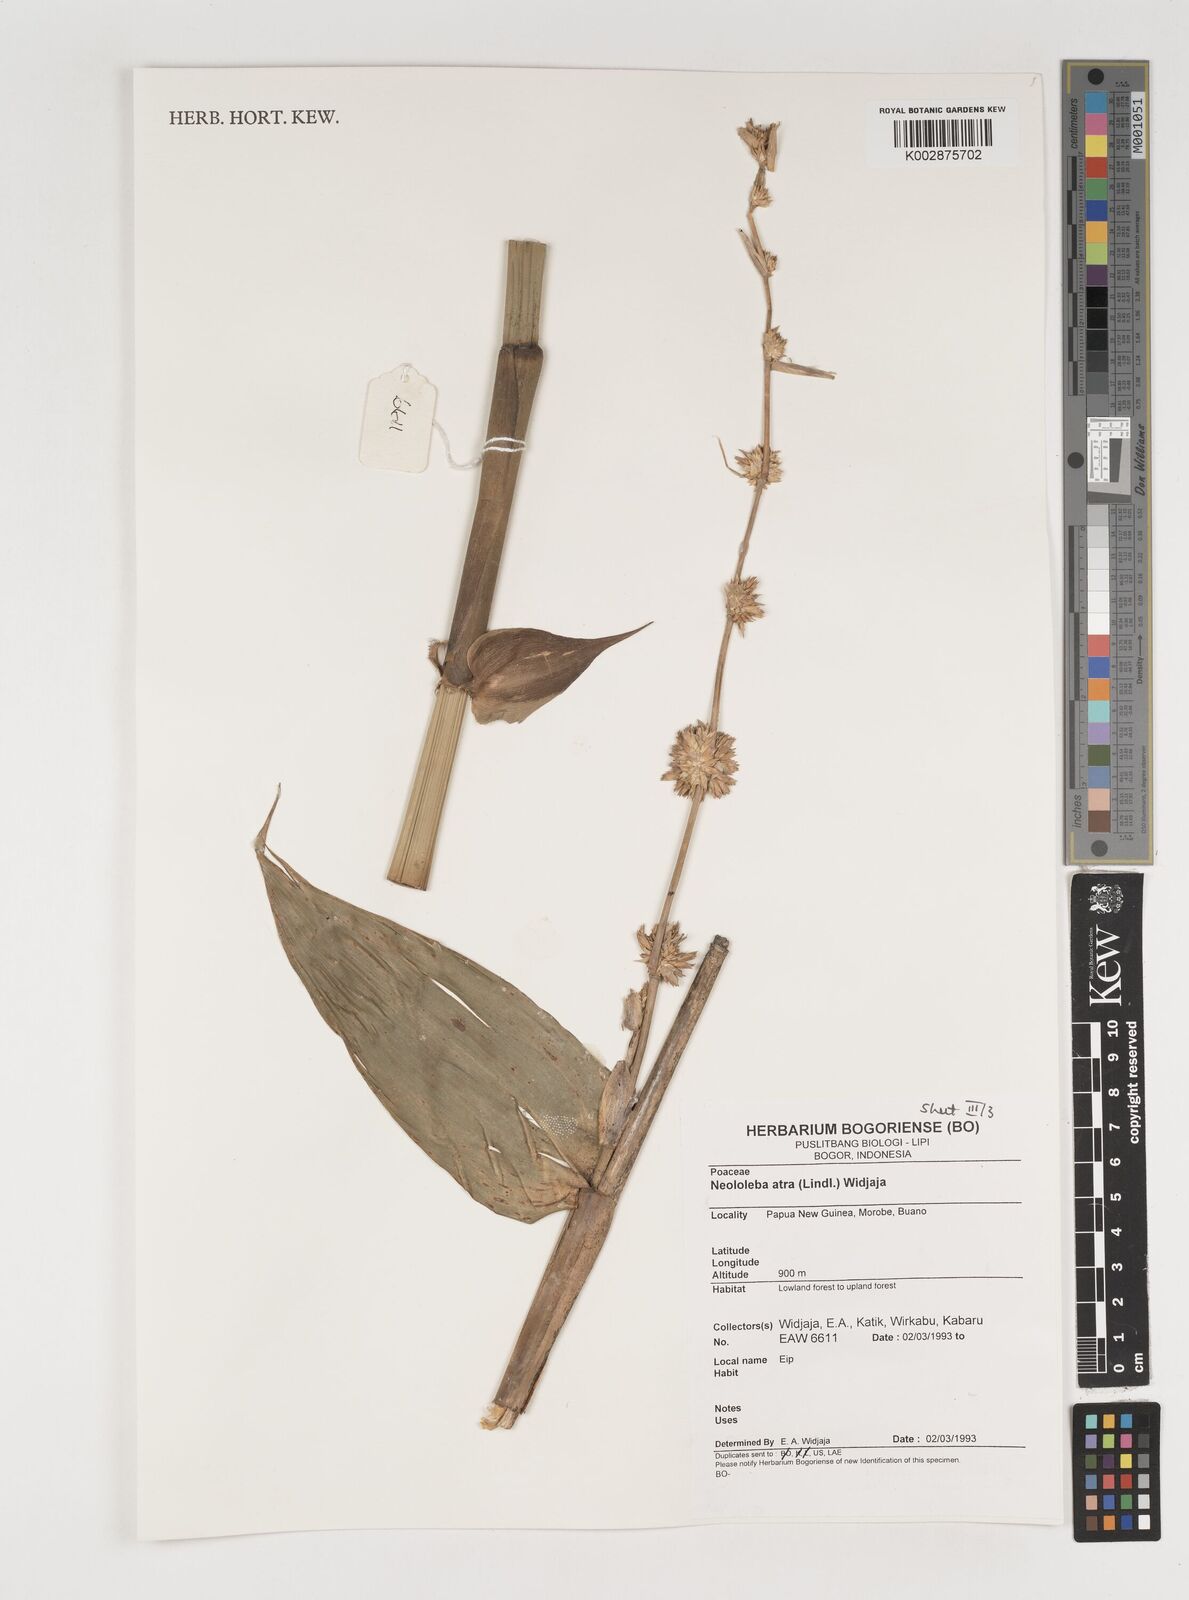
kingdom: Plantae
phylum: Tracheophyta
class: Liliopsida
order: Poales
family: Poaceae
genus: Neololeba
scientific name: Neololeba atra
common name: Cape bamboo
